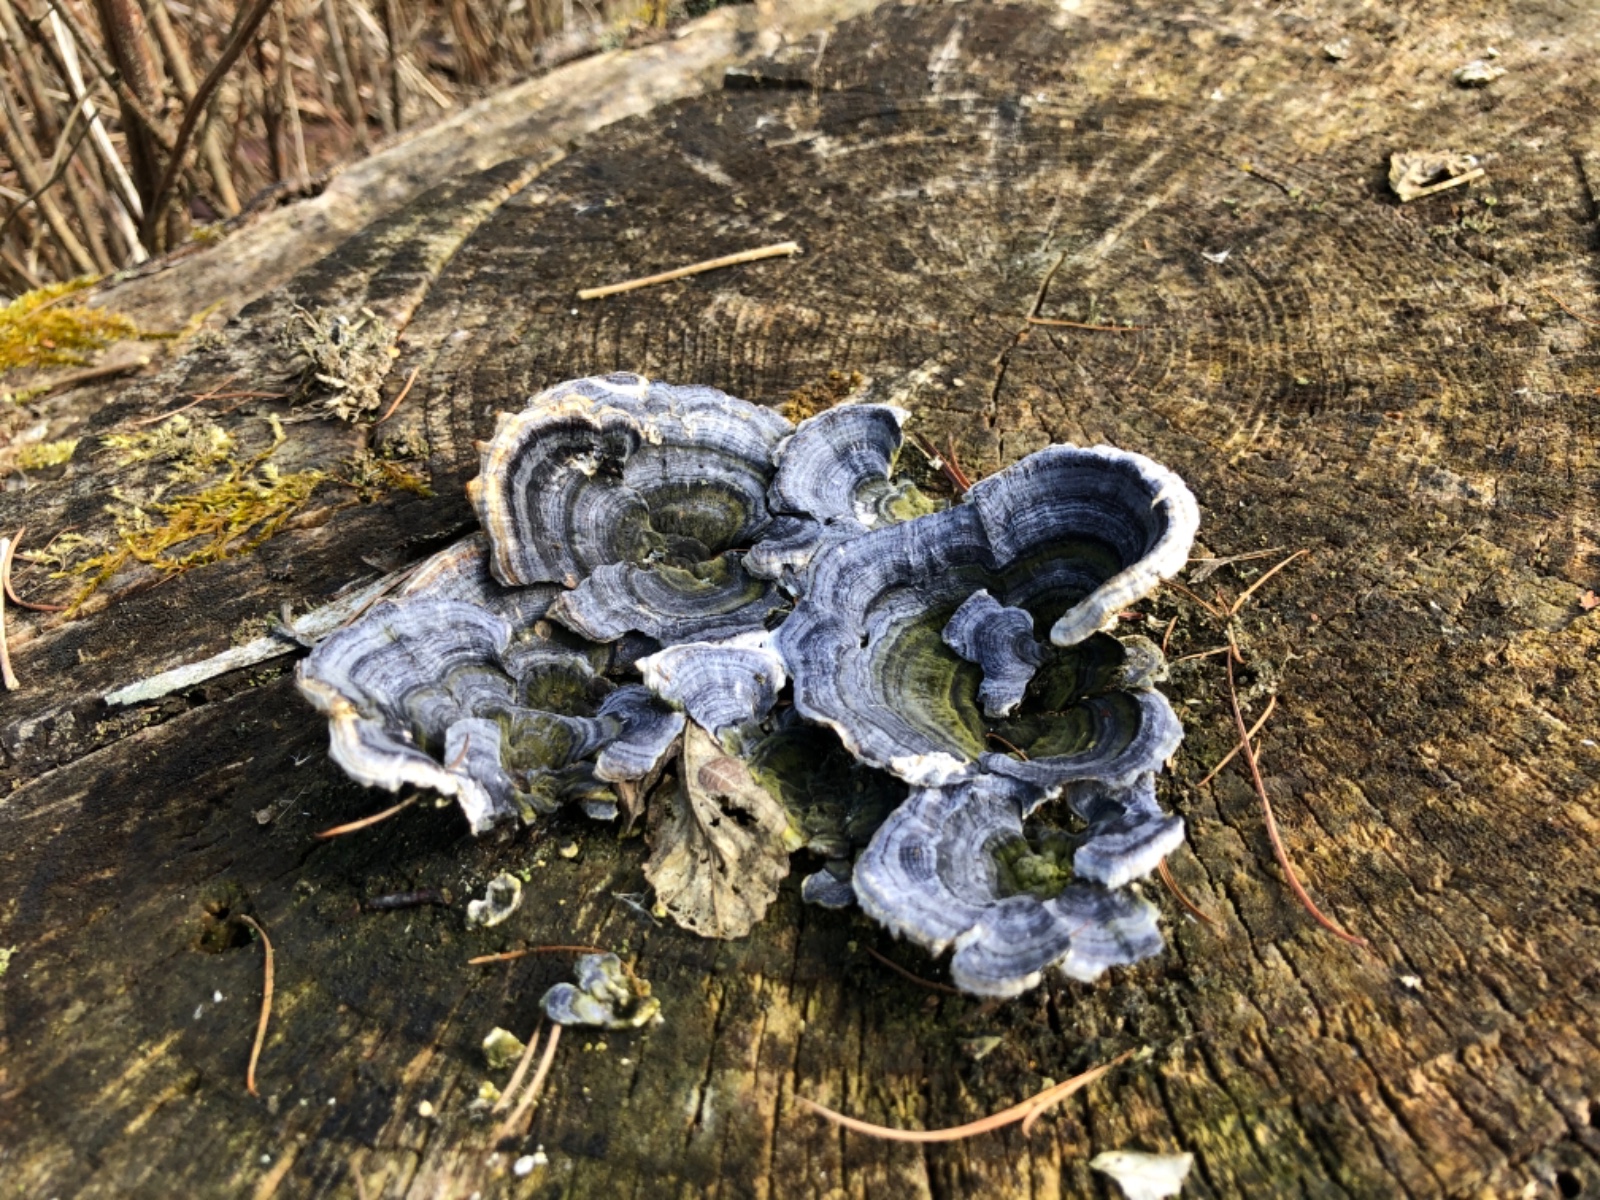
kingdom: Fungi
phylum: Basidiomycota
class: Agaricomycetes
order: Polyporales
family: Polyporaceae
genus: Trametes
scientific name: Trametes versicolor
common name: broget læderporesvamp
